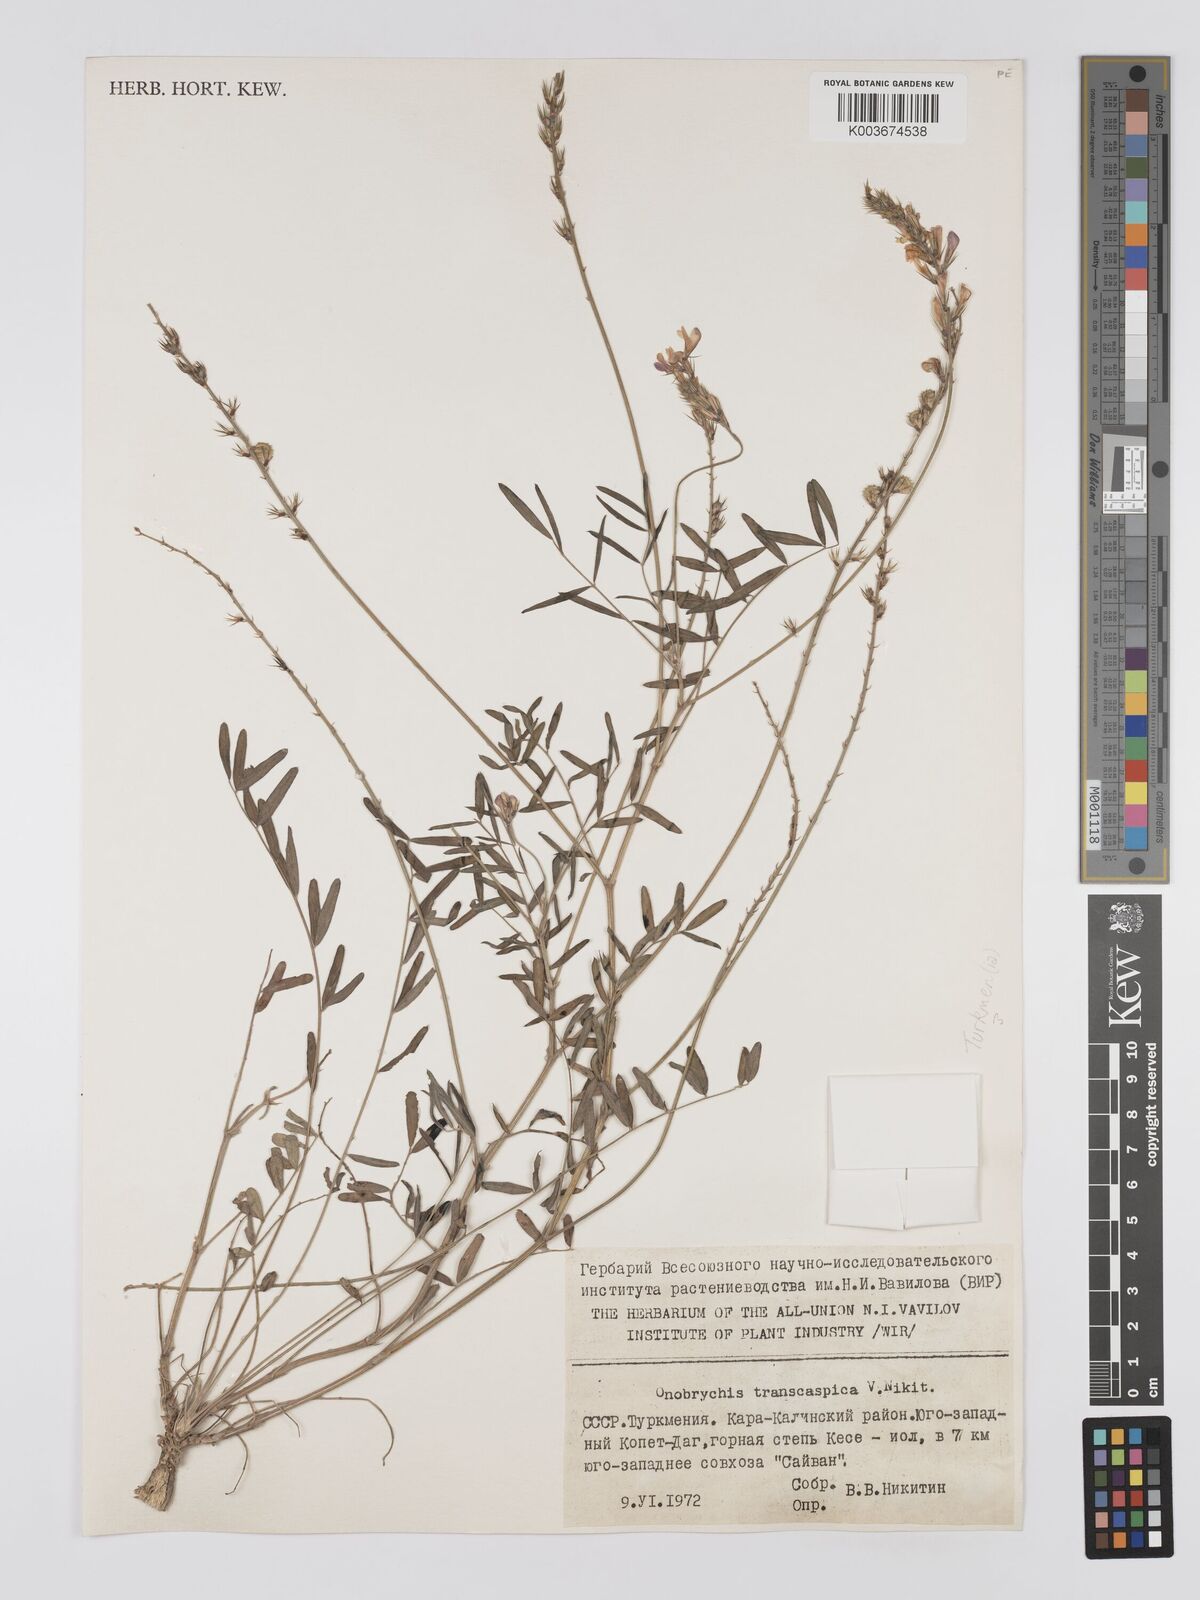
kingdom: Plantae
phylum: Tracheophyta
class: Magnoliopsida
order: Fabales
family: Fabaceae
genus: Onobrychis
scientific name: Onobrychis transcaspica
